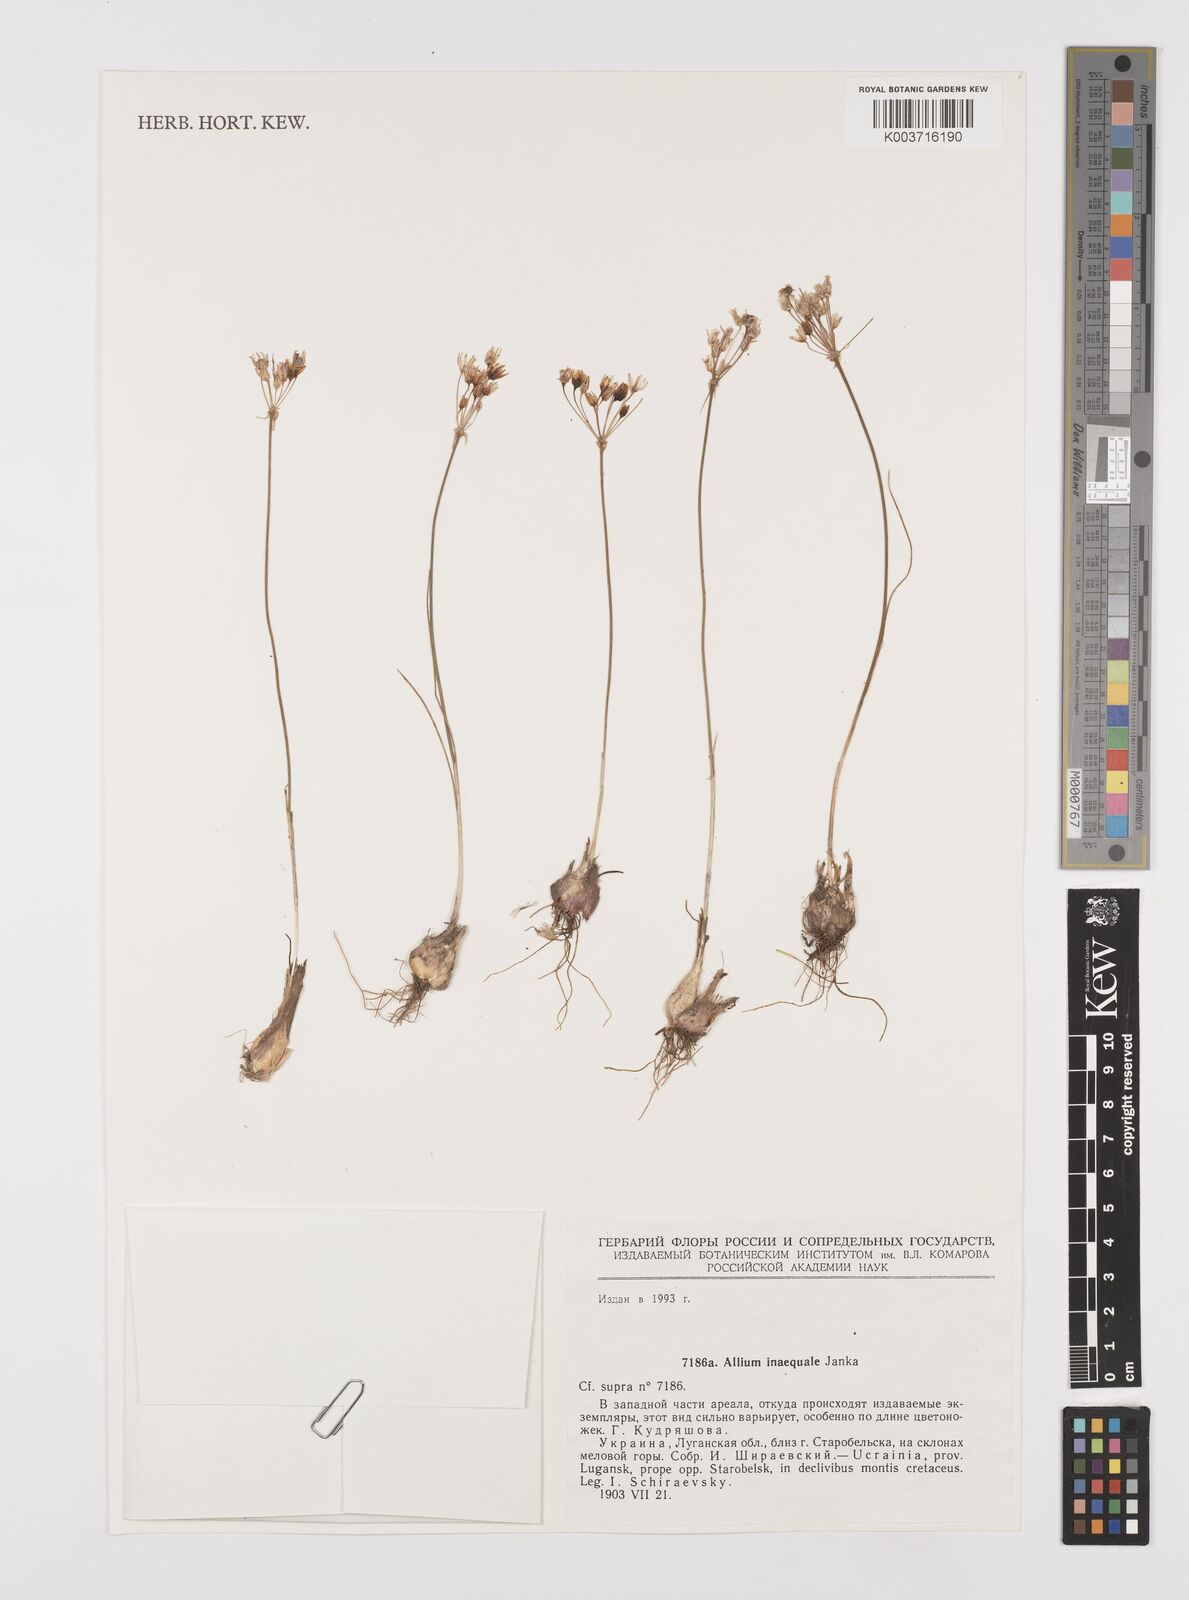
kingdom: Plantae
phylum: Tracheophyta
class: Liliopsida
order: Asparagales
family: Amaryllidaceae
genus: Allium
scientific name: Allium inaequale
